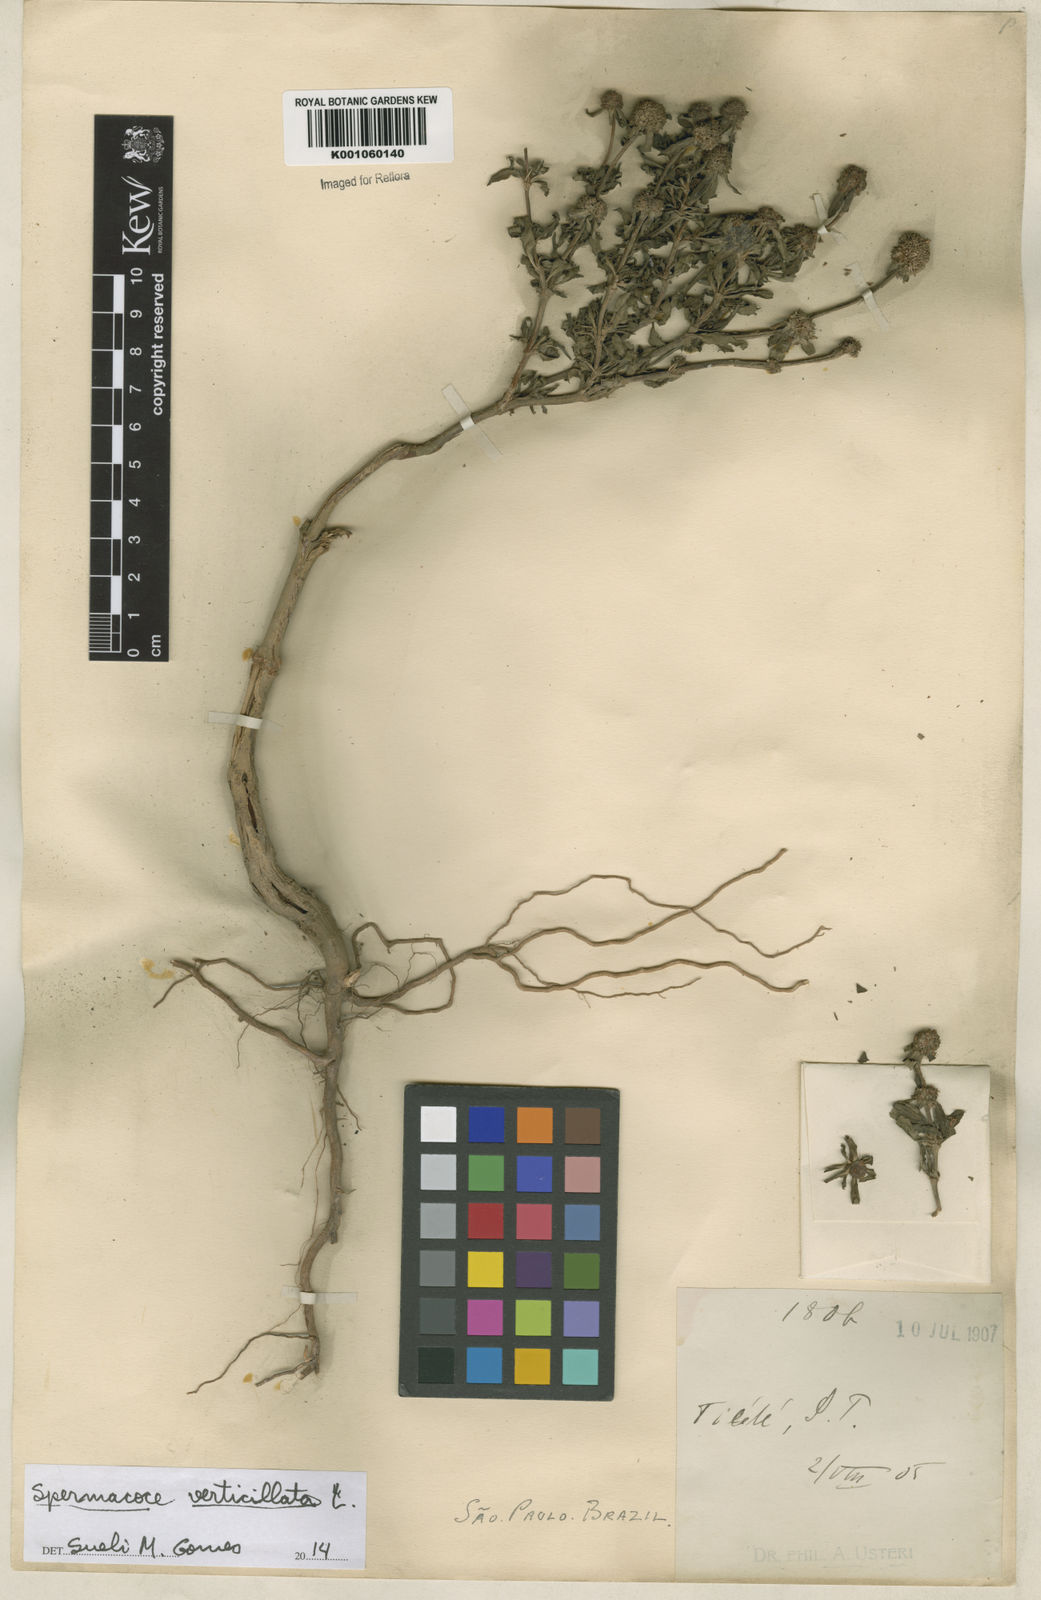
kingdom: Plantae
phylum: Tracheophyta
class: Magnoliopsida
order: Gentianales
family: Rubiaceae
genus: Spermacoce
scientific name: Spermacoce verticillata
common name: Shrubby false buttonweed
